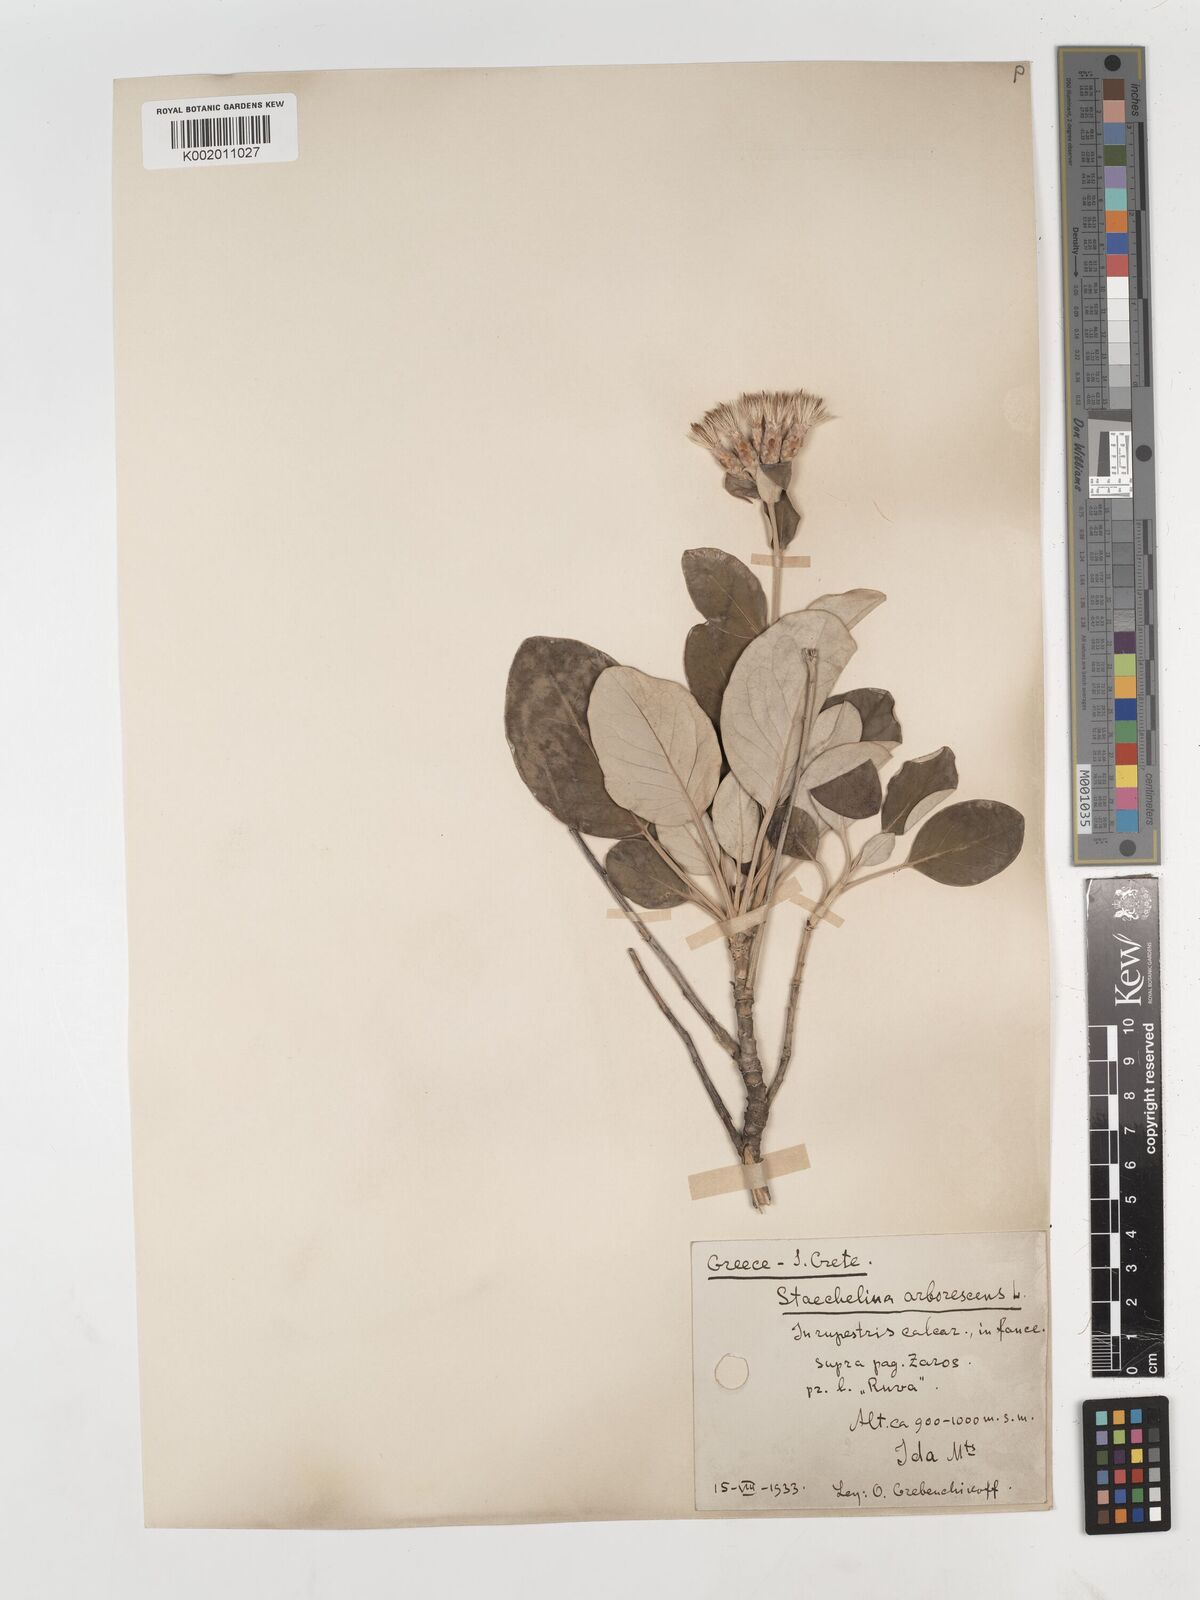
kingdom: Plantae
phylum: Tracheophyta
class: Magnoliopsida
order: Asterales
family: Asteraceae
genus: Staehelina
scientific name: Staehelina petiolata
